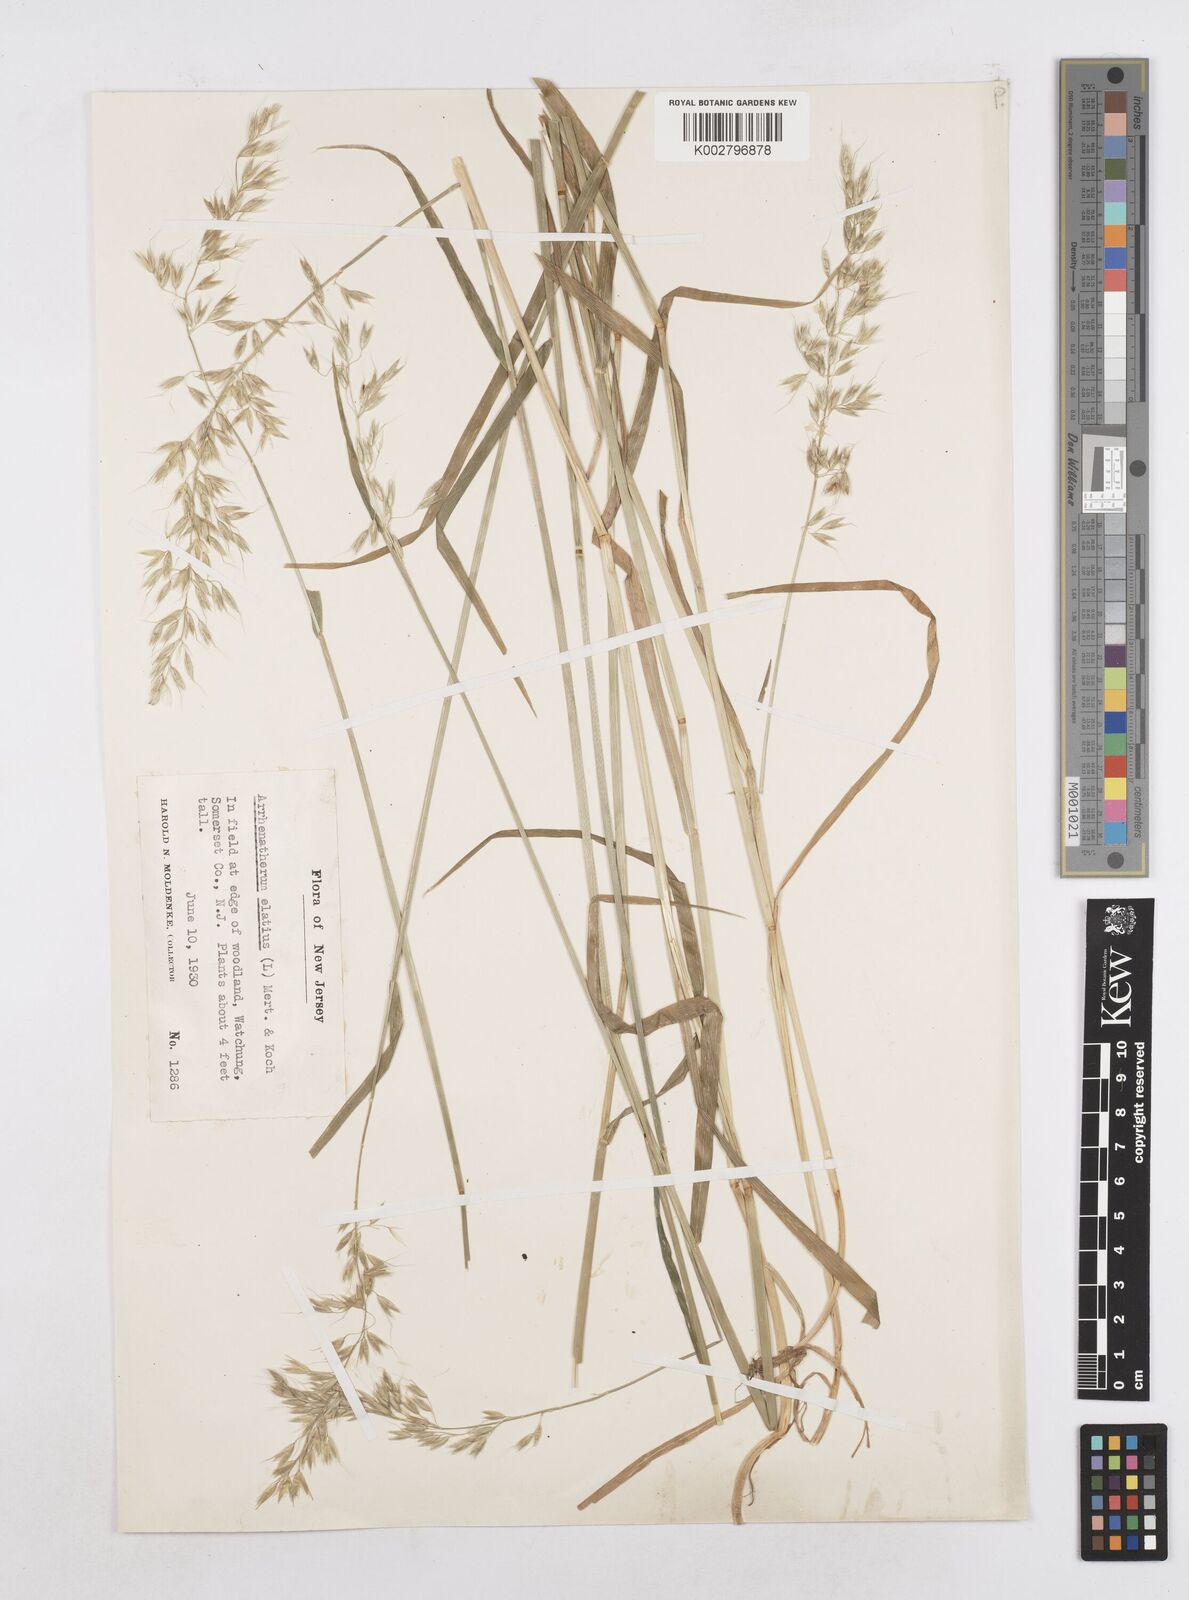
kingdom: Plantae
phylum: Tracheophyta
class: Liliopsida
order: Poales
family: Poaceae
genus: Arrhenatherum
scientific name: Arrhenatherum elatius
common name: Tall oatgrass
